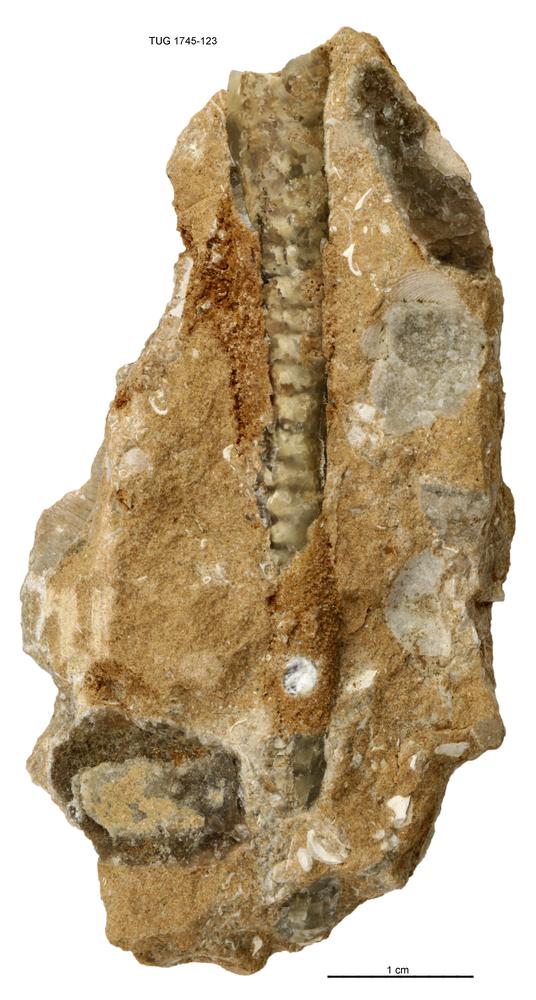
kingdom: Animalia
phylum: Mollusca
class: Cephalopoda
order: Orthocerida
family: Orthoceratidae
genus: Orthoceras
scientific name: Orthoceras
